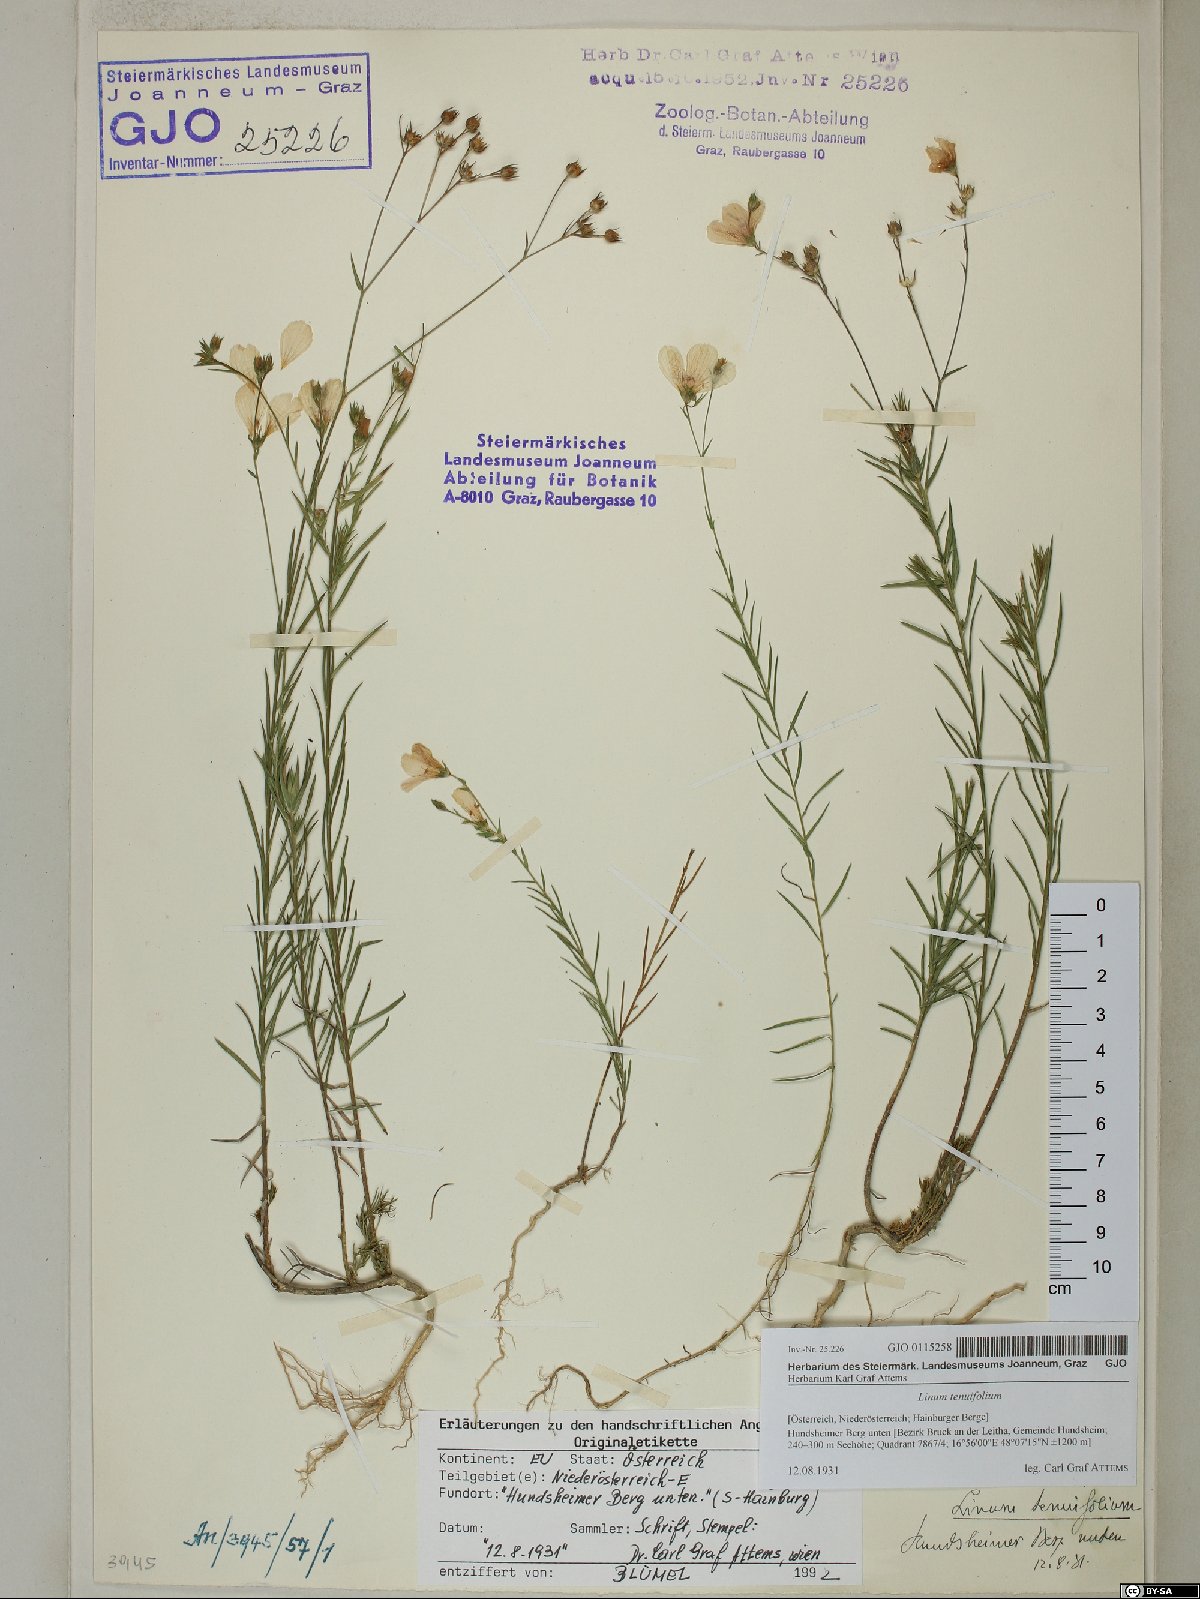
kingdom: Plantae
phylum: Tracheophyta
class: Magnoliopsida
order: Malpighiales
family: Linaceae
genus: Linum
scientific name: Linum tenuifolium
